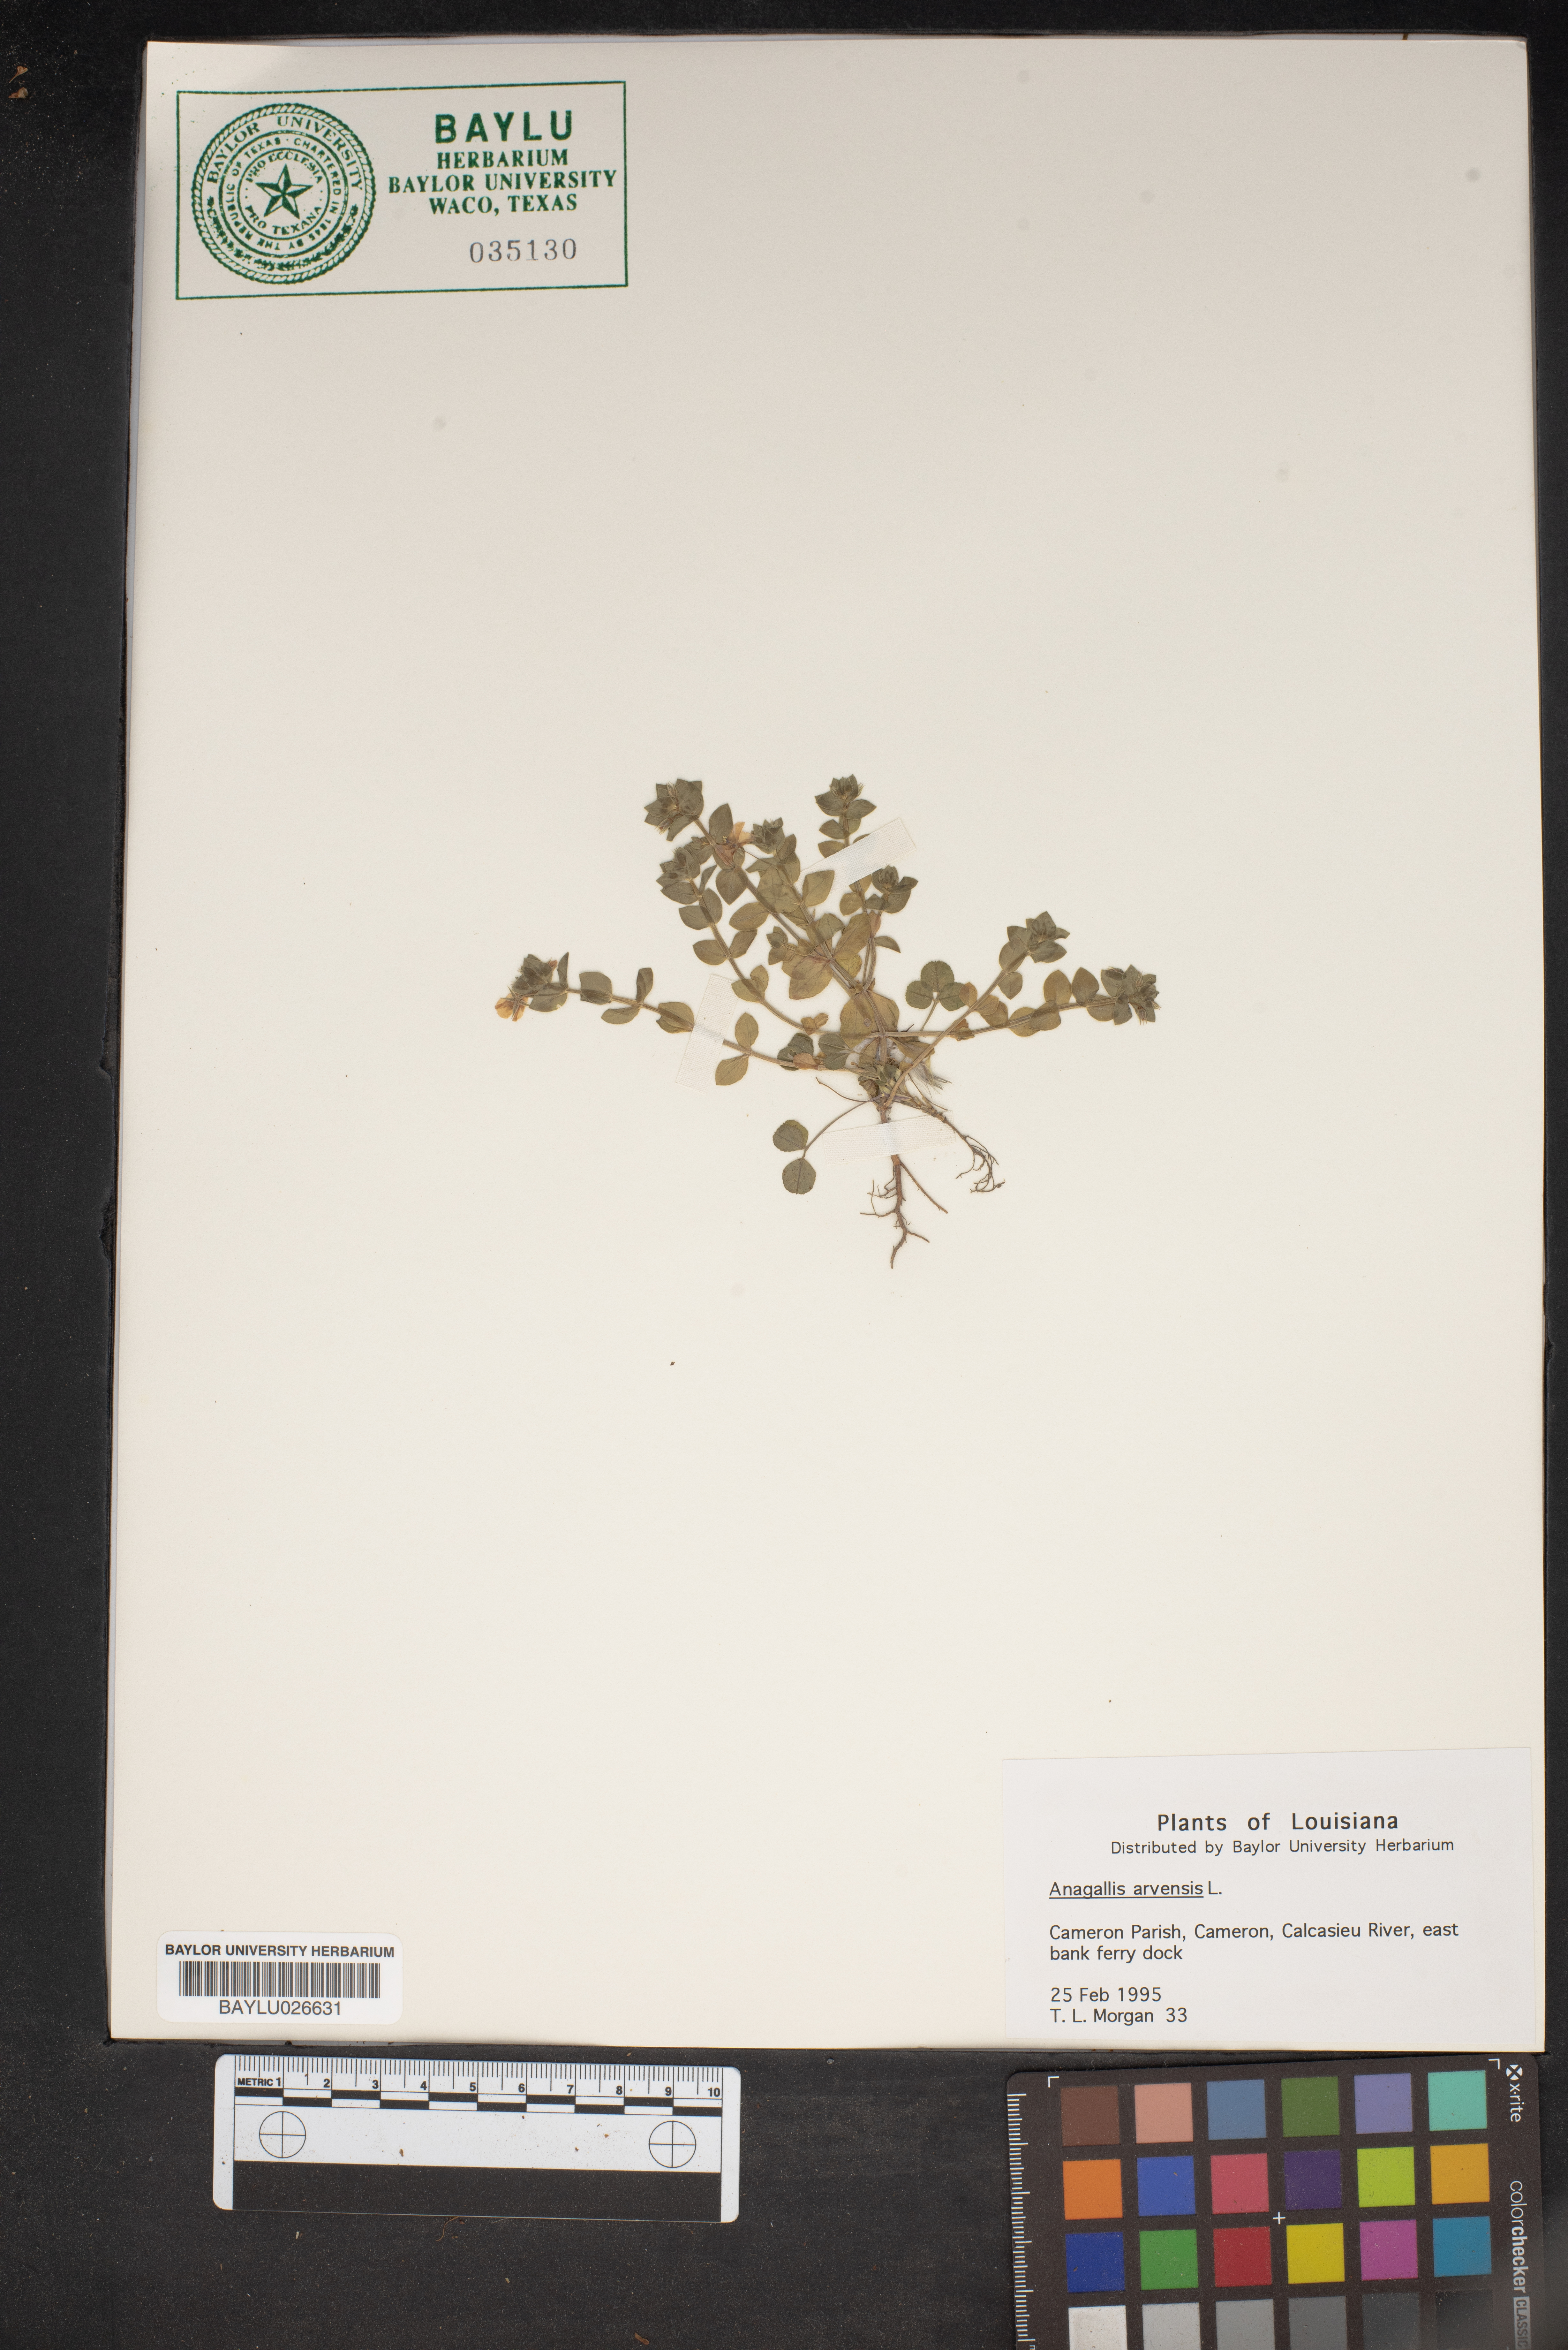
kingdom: Plantae
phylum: Tracheophyta
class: Magnoliopsida
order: Ericales
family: Primulaceae
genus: Lysimachia
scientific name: Lysimachia arvensis
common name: Scarlet pimpernel
